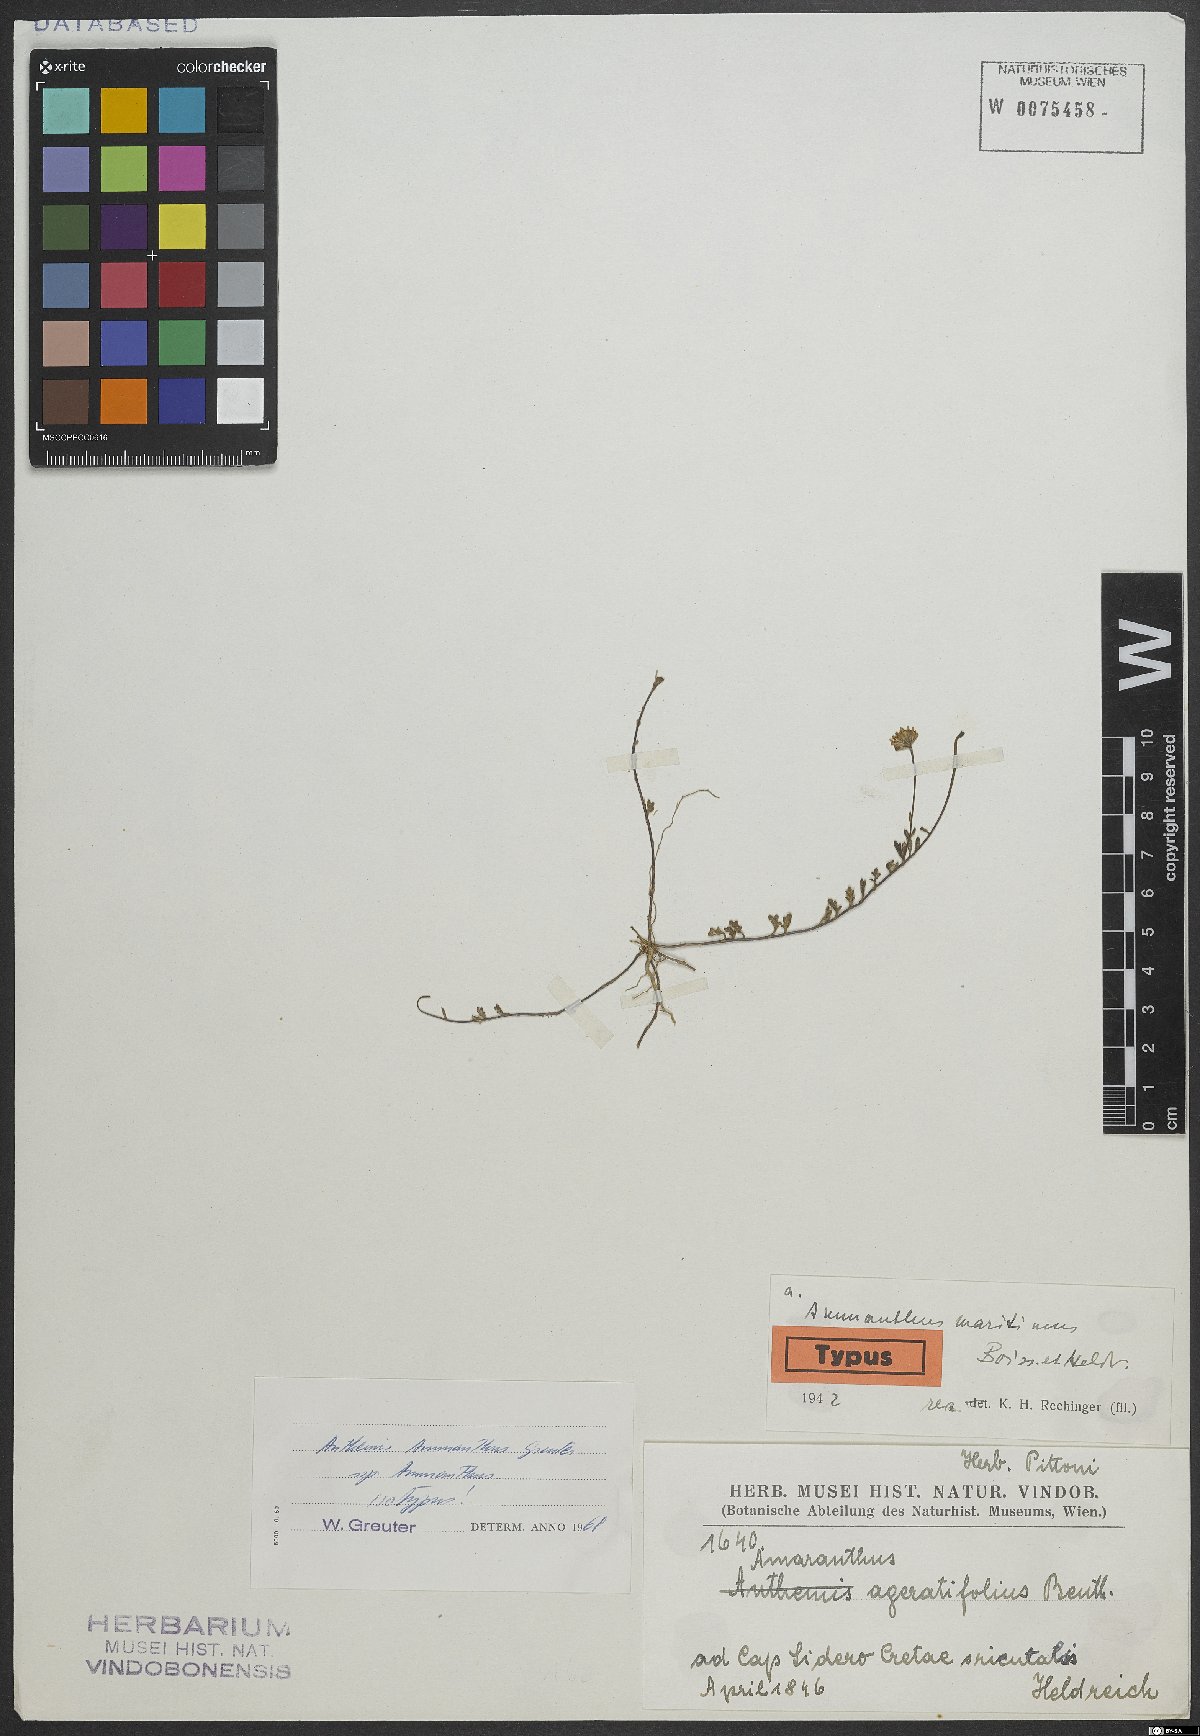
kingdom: Plantae
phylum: Tracheophyta
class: Magnoliopsida
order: Asterales
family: Asteraceae
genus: Anthemis
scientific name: Anthemis ammanthus
